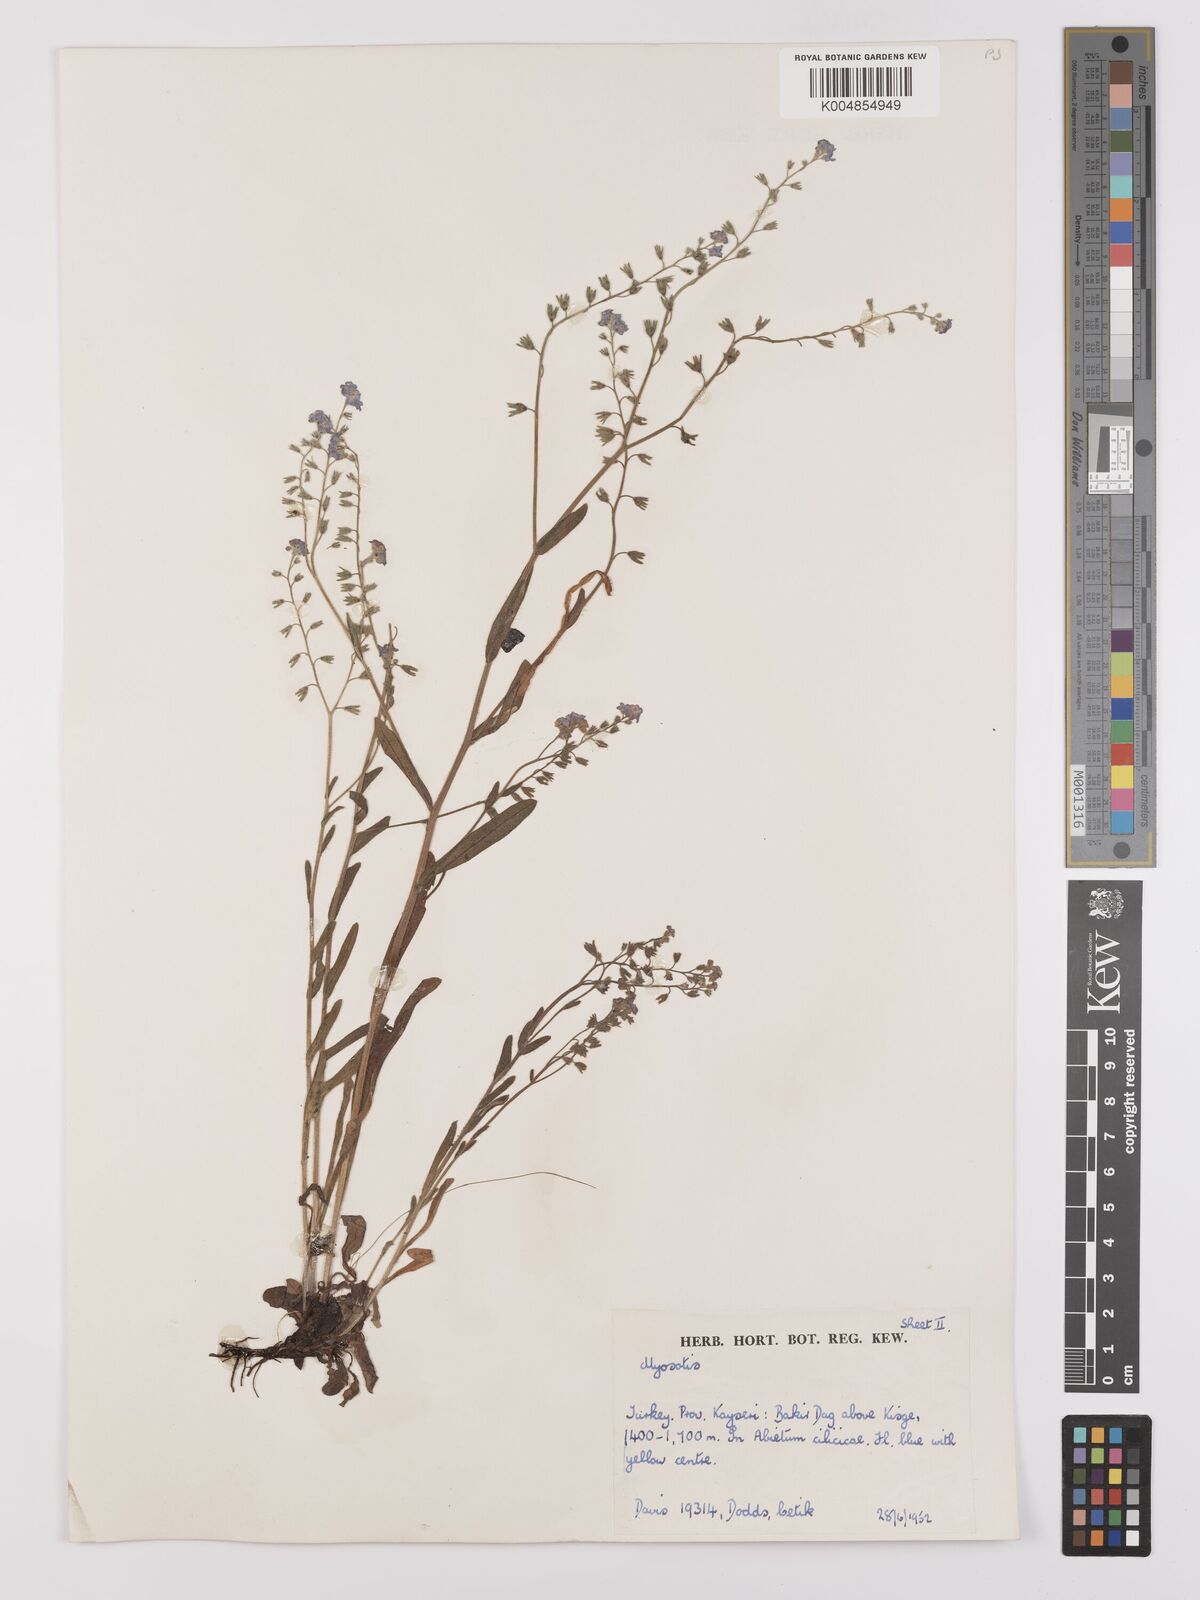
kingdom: Plantae
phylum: Tracheophyta
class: Magnoliopsida
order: Boraginales
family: Boraginaceae
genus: Myosotis
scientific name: Myosotis
